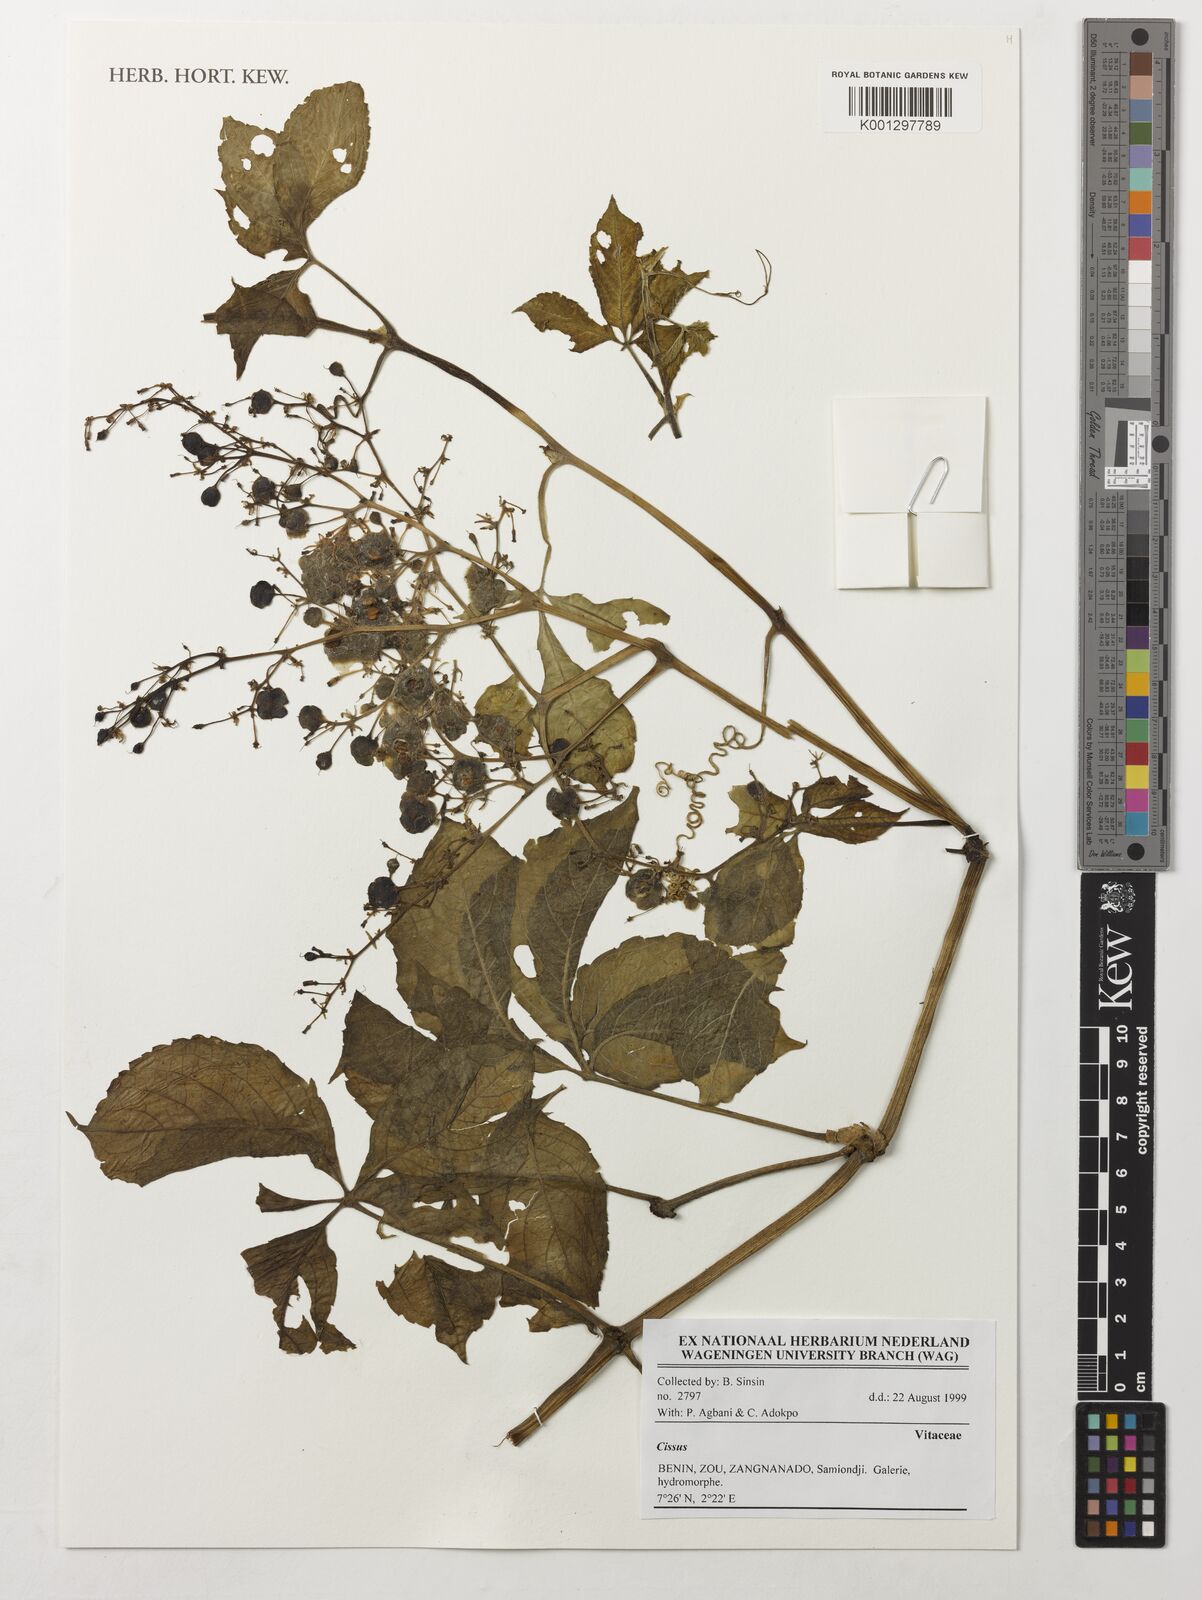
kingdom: Plantae
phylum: Tracheophyta
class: Magnoliopsida
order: Vitales
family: Vitaceae
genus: Cissus
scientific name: Cissus
